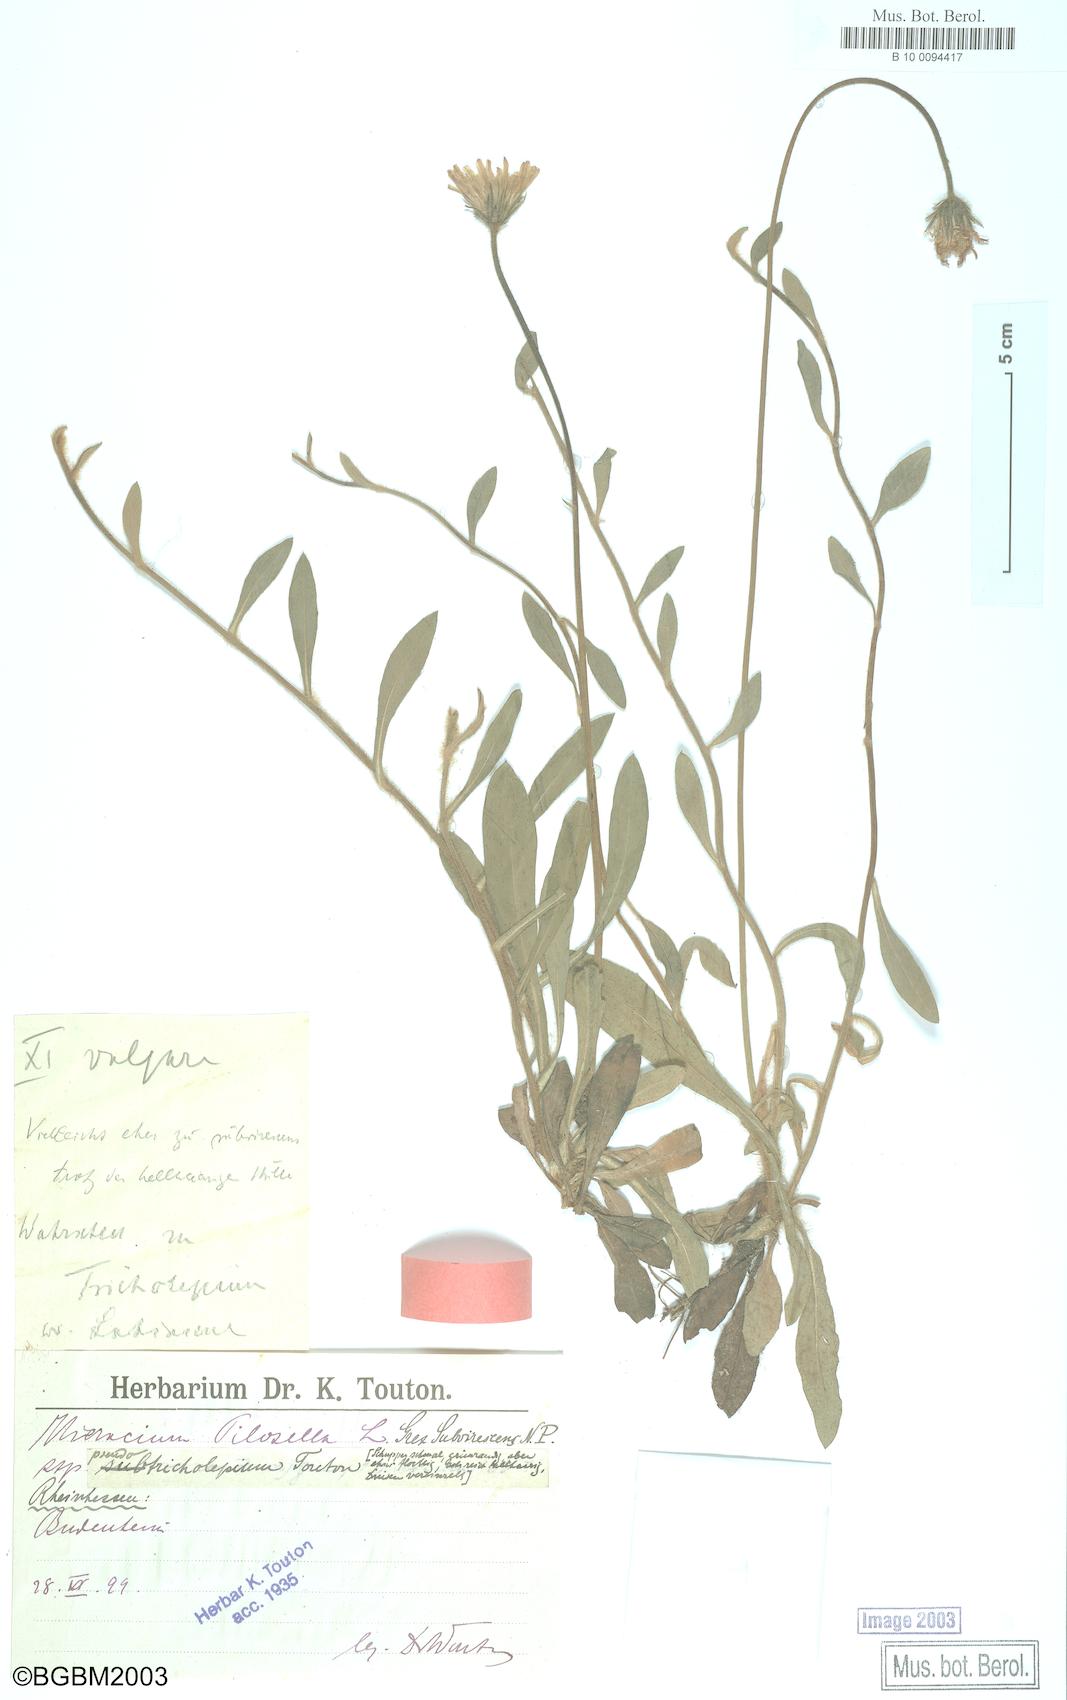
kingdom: Plantae
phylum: Tracheophyta
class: Magnoliopsida
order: Asterales
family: Asteraceae
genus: Pilosella
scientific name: Pilosella officinarum
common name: Mouse-ear hawkweed
